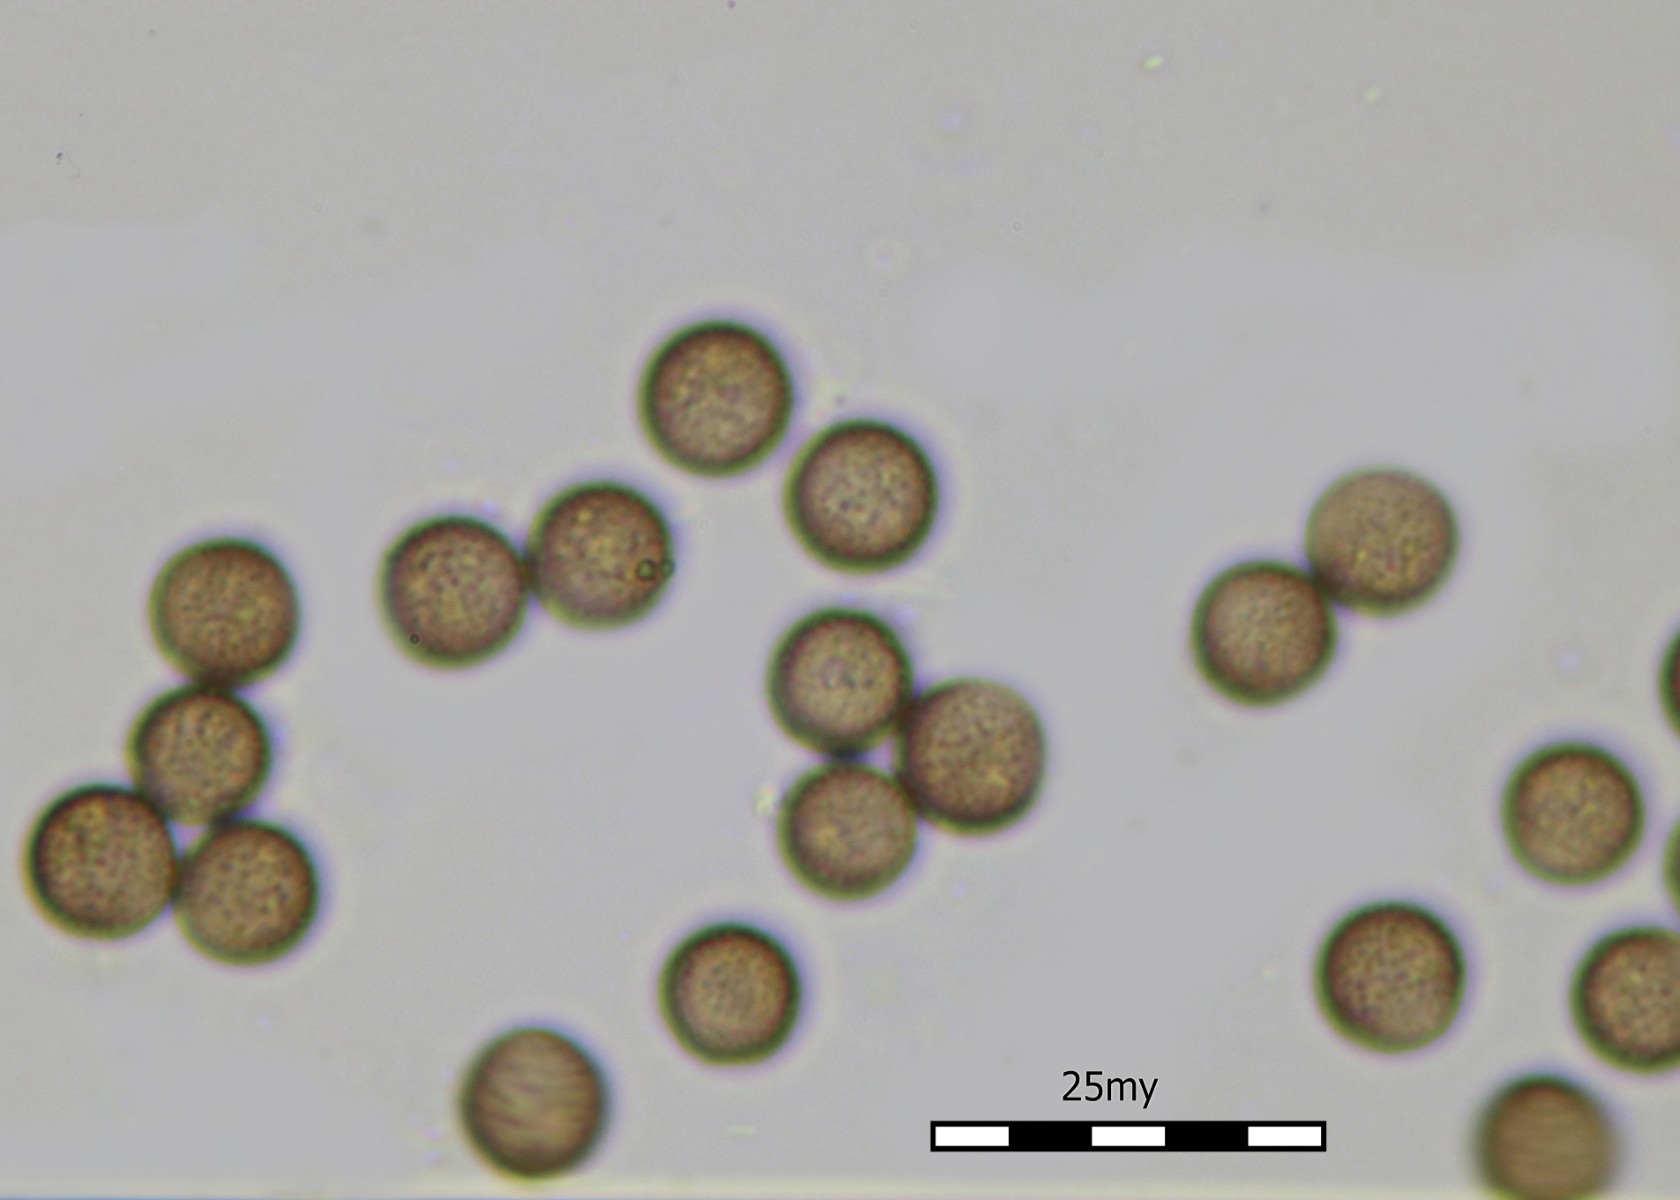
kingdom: Protozoa
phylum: Mycetozoa
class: Myxomycetes
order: Physarales
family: Physaraceae
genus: Craterium
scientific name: Craterium minutum
